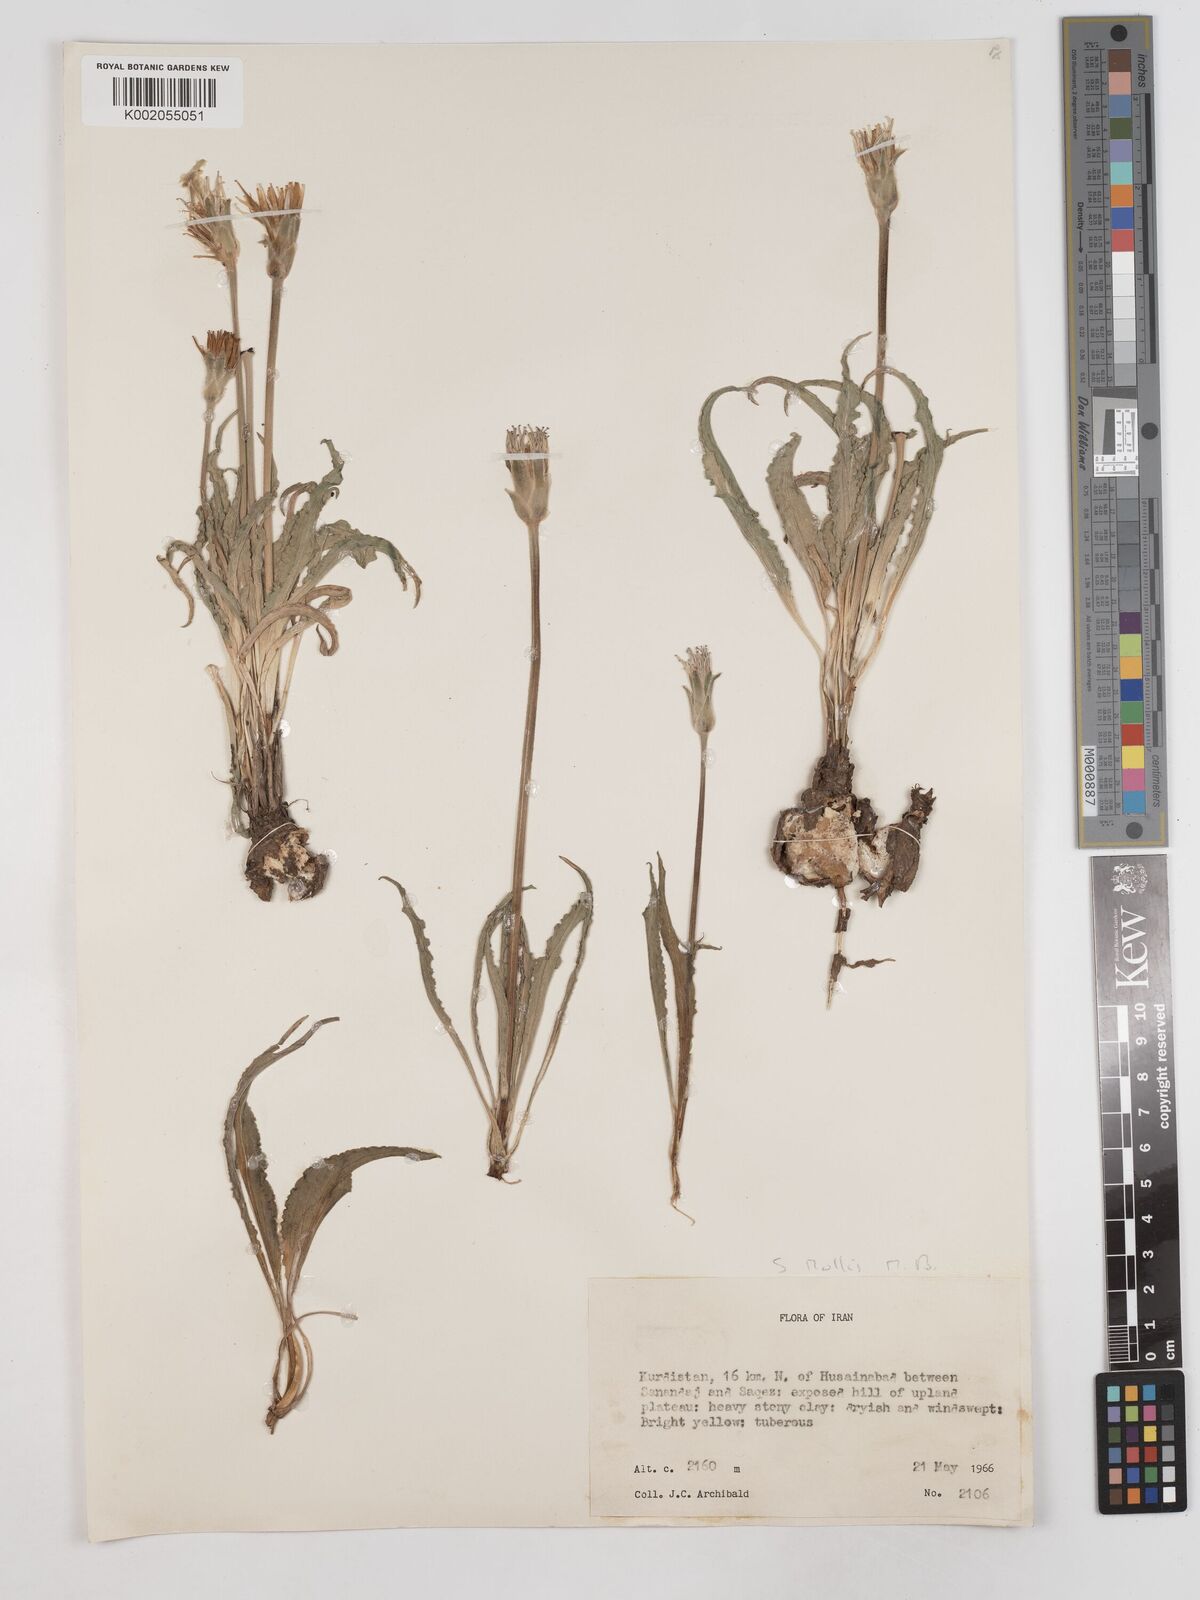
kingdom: Plantae
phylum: Tracheophyta
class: Magnoliopsida
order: Asterales
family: Asteraceae
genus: Candollea
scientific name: Candollea mollis
